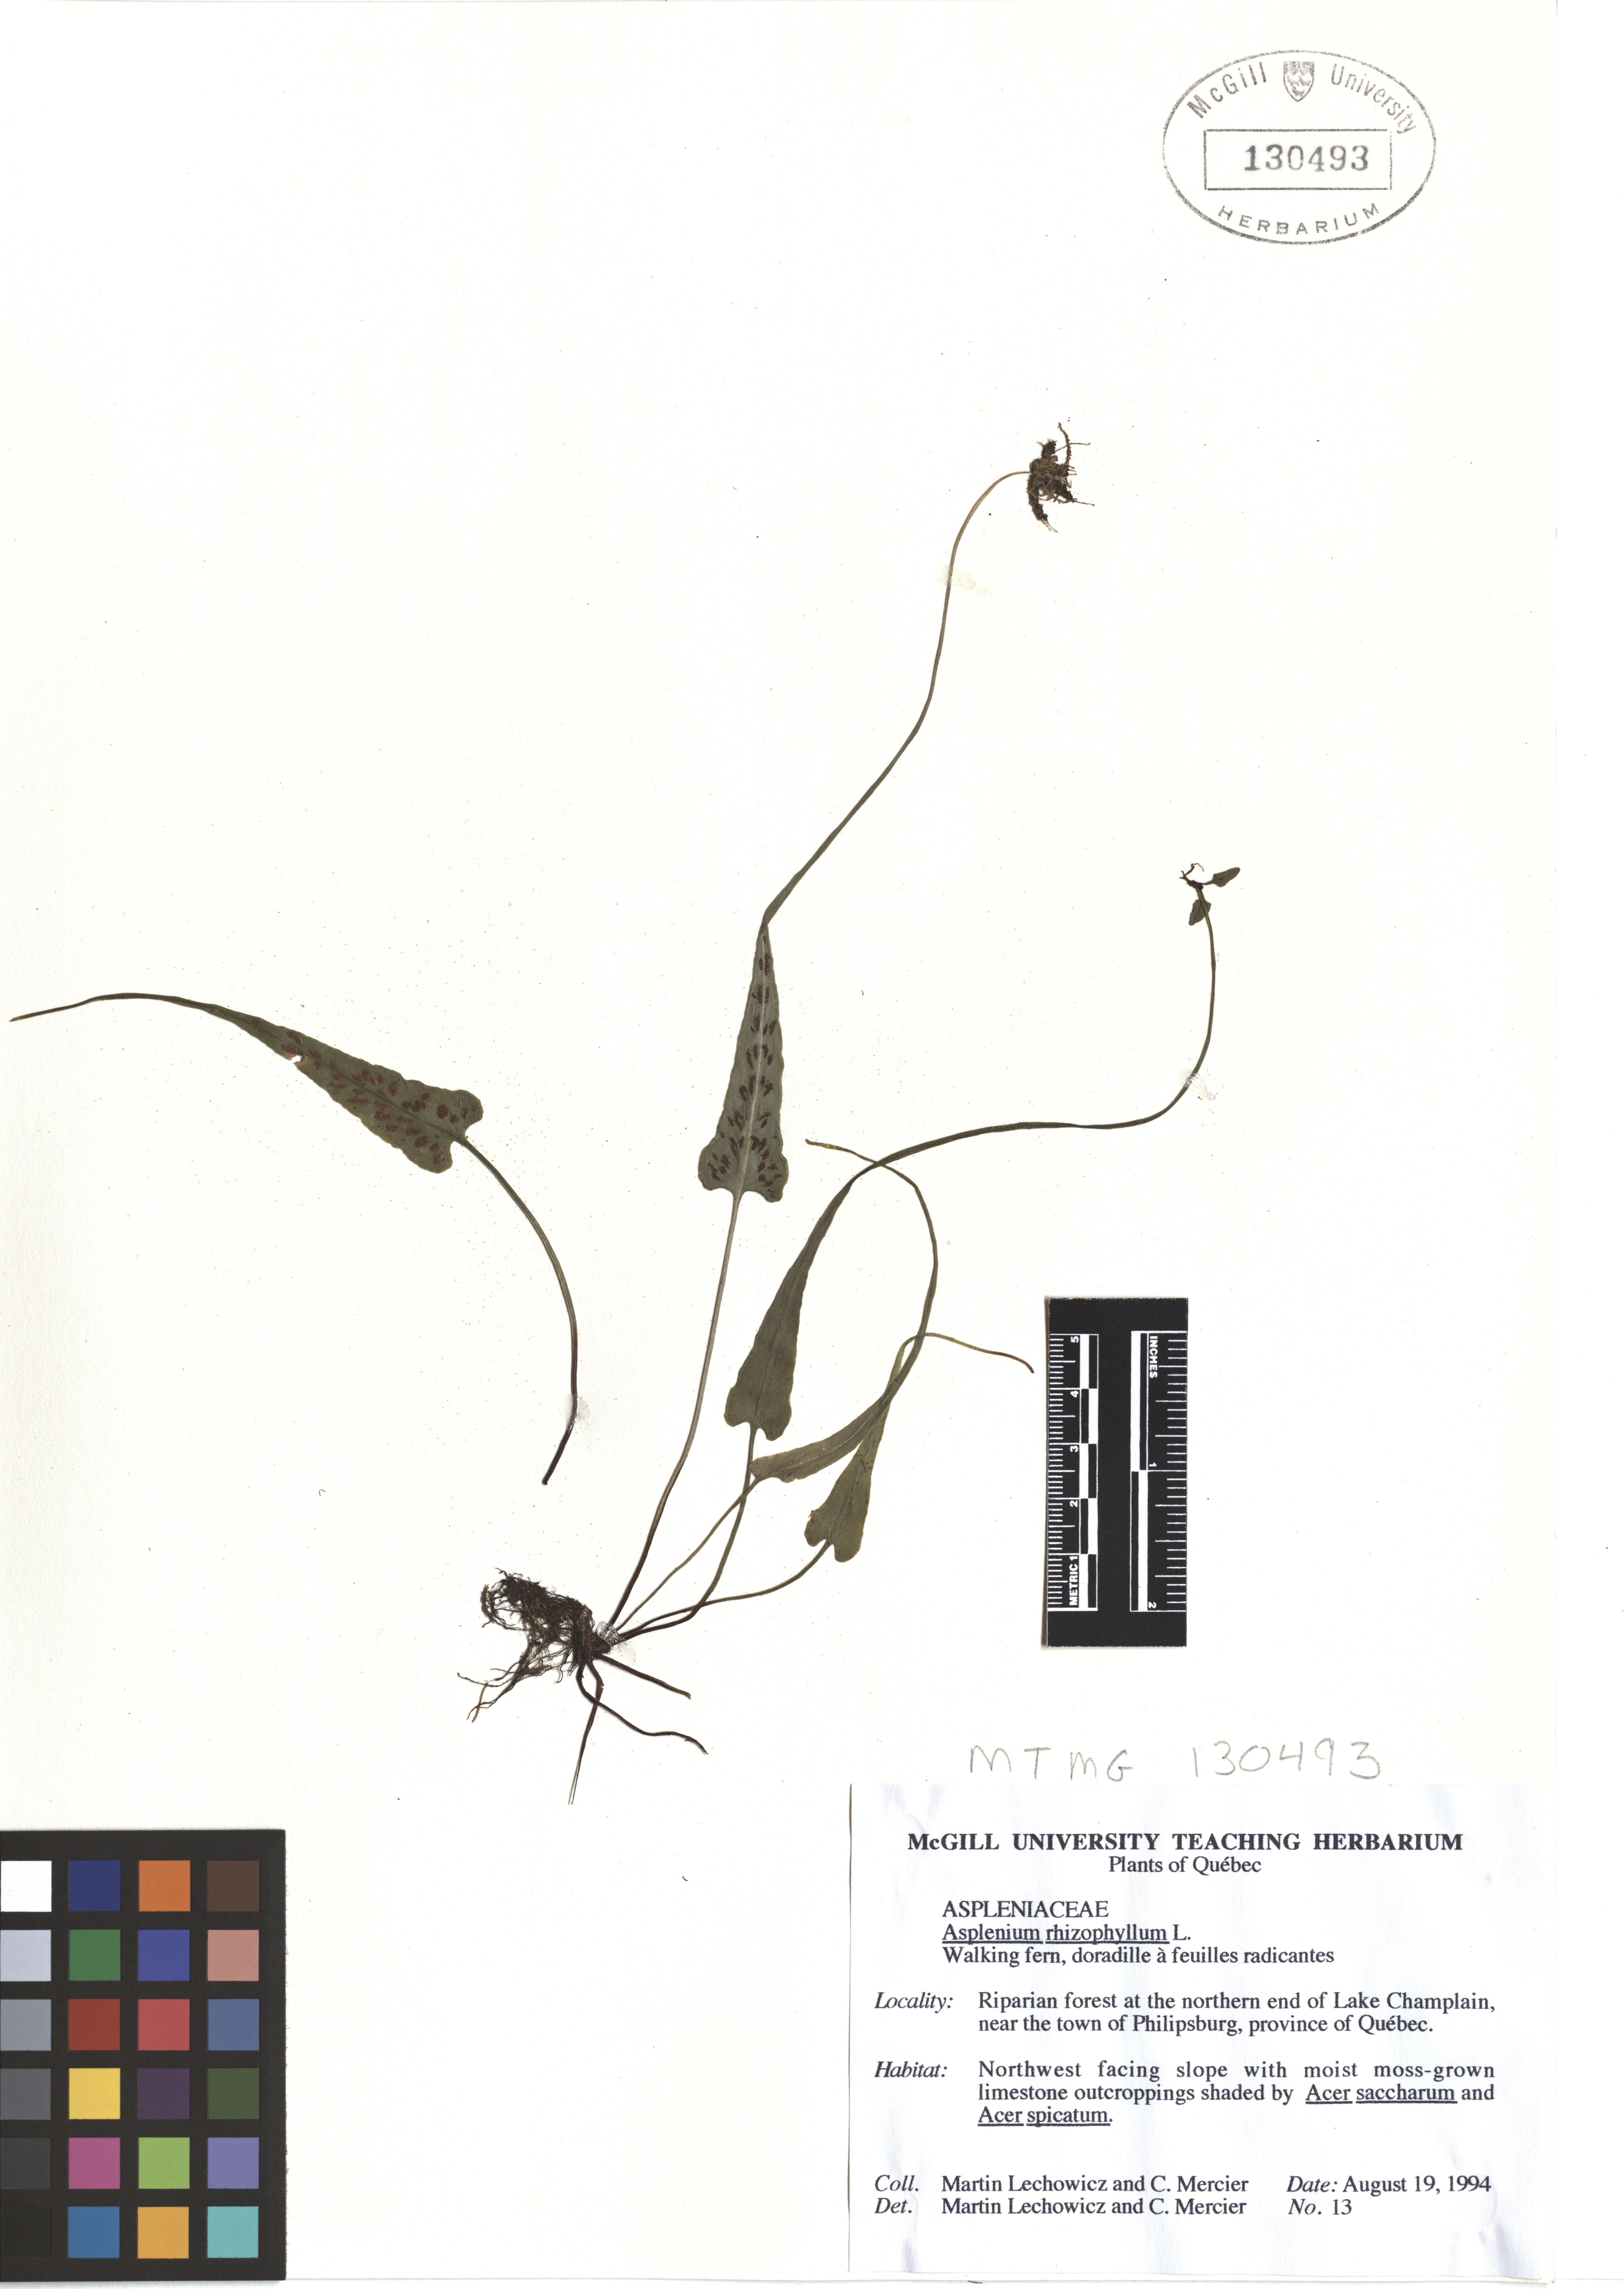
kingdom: Plantae
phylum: Tracheophyta
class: Polypodiopsida
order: Polypodiales
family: Aspleniaceae
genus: Asplenium
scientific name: Asplenium radicans
